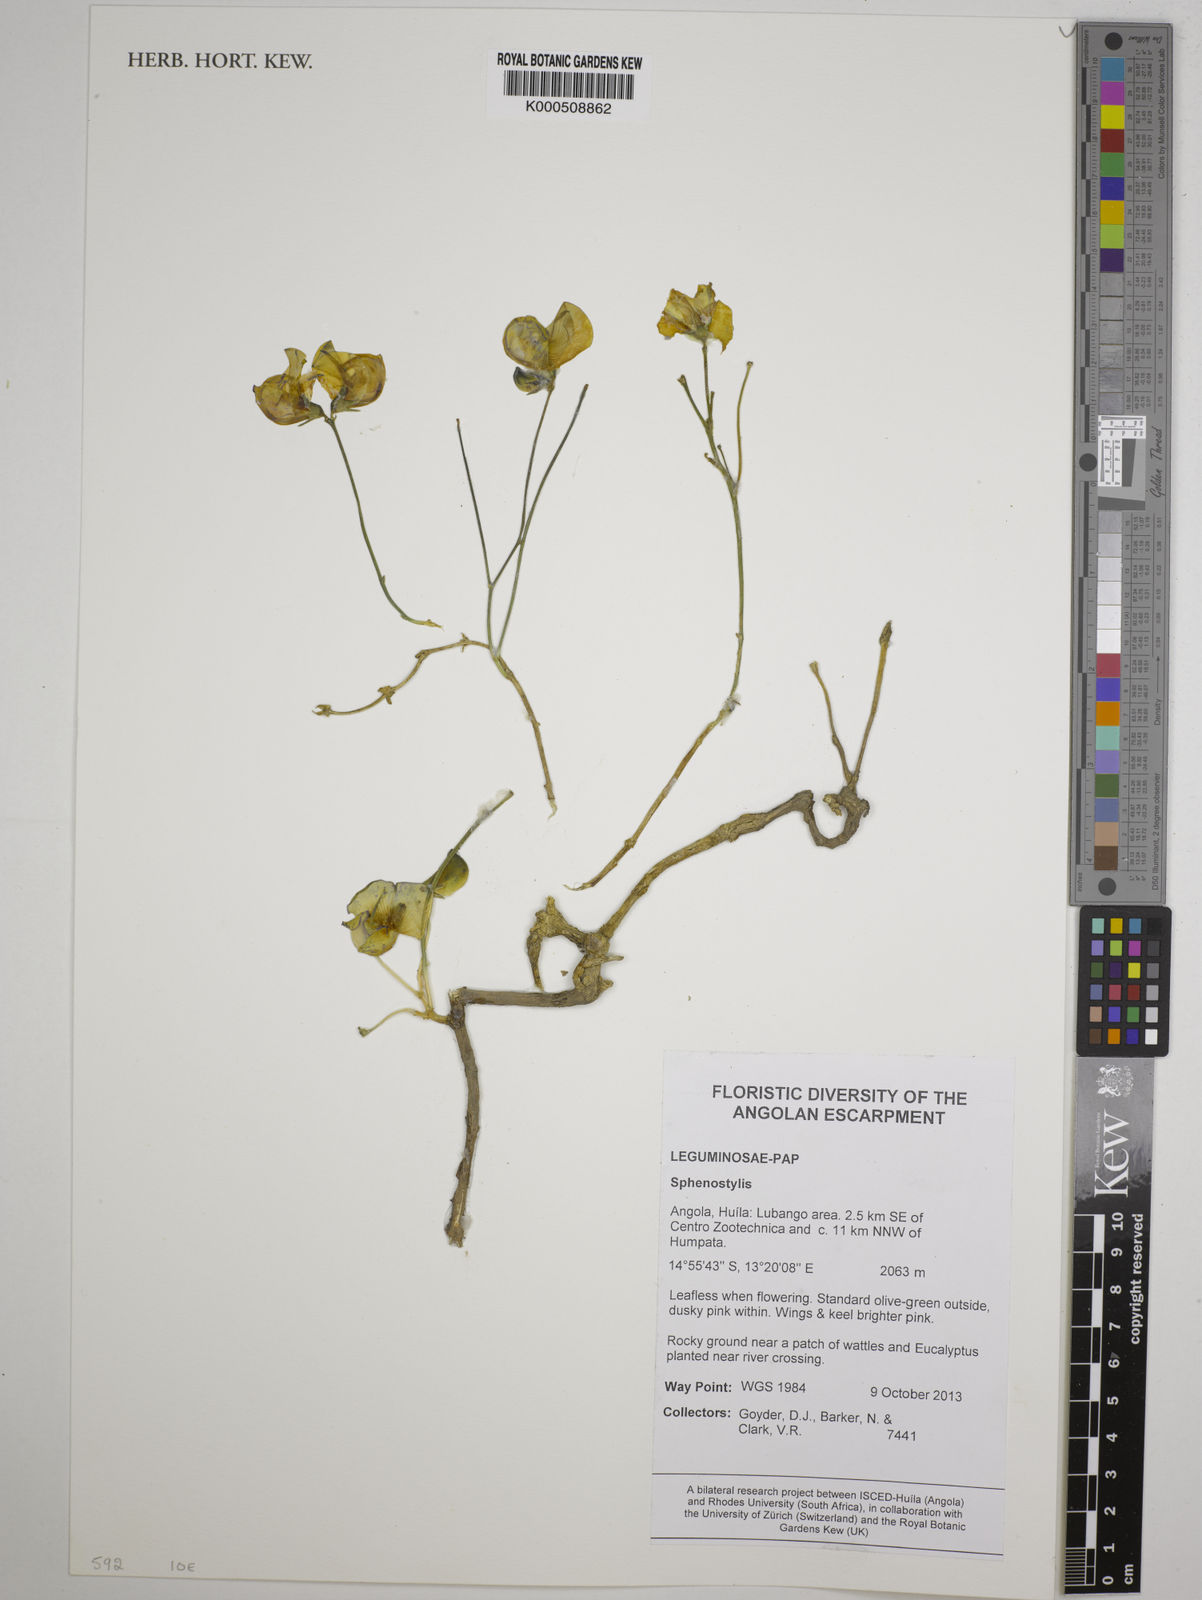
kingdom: Plantae
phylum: Tracheophyta
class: Magnoliopsida
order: Fabales
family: Fabaceae
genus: Sphenostylis
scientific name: Sphenostylis
